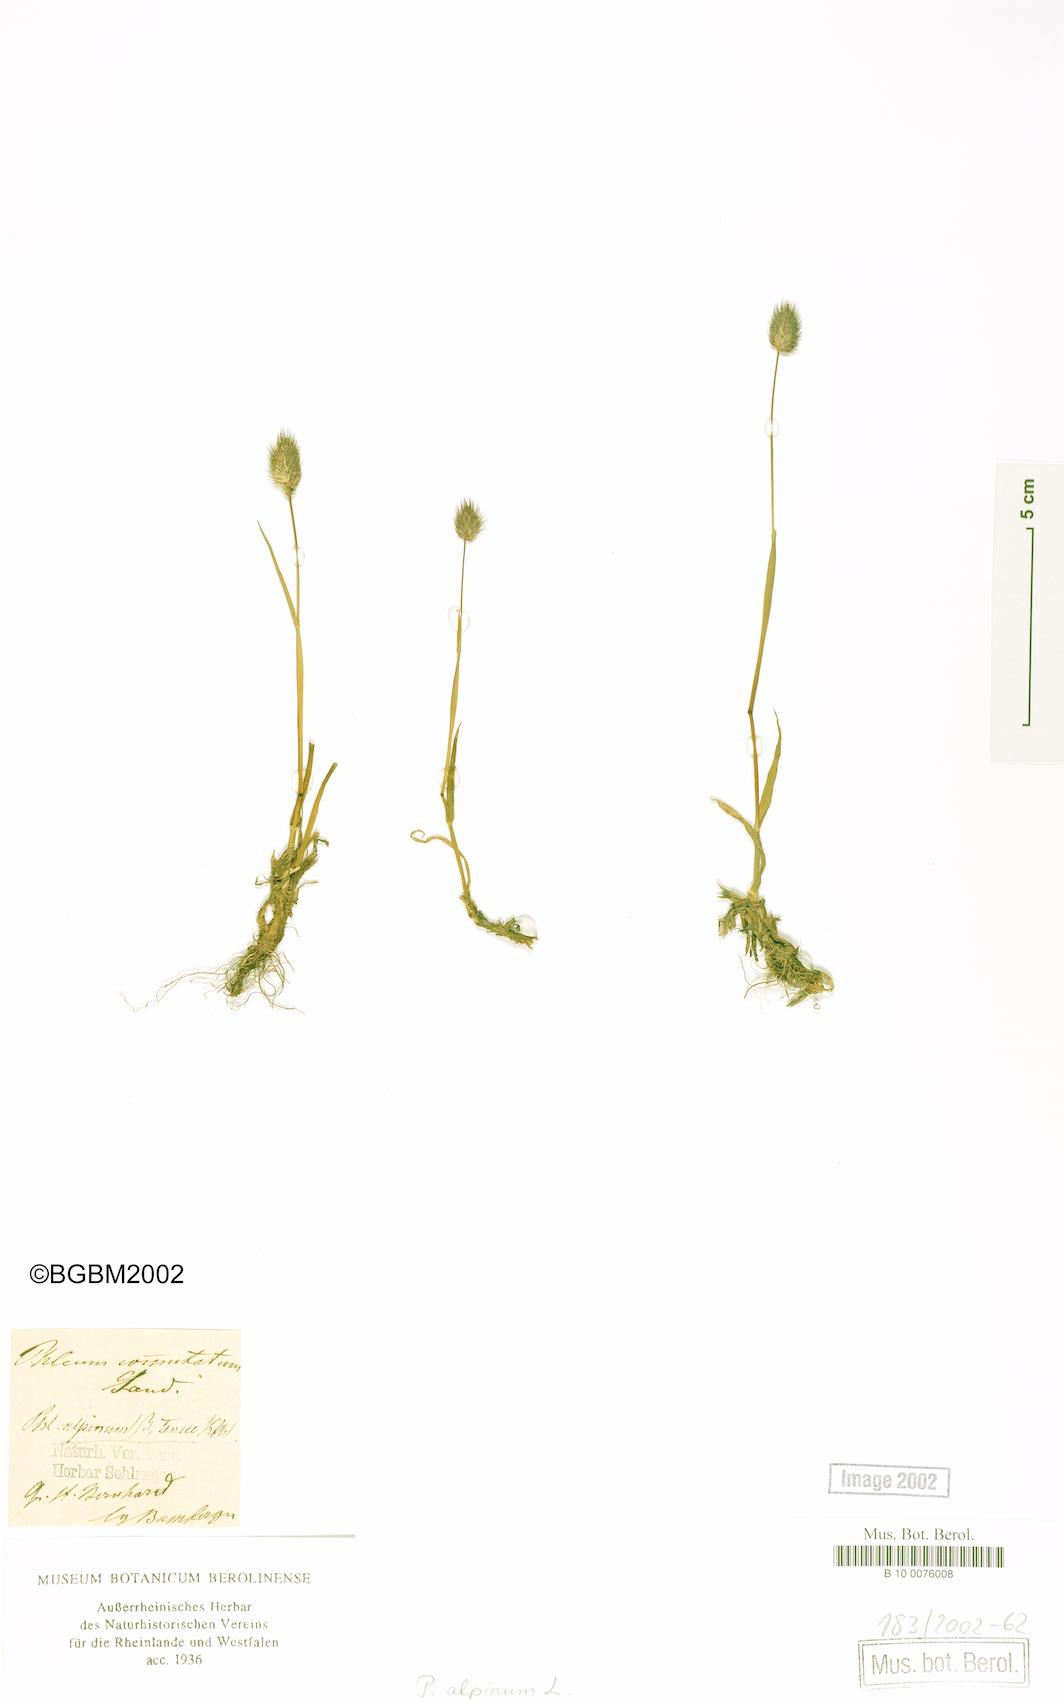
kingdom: Plantae
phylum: Tracheophyta
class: Liliopsida
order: Poales
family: Poaceae
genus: Phleum
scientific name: Phleum alpinum
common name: Alpine cat's-tail
